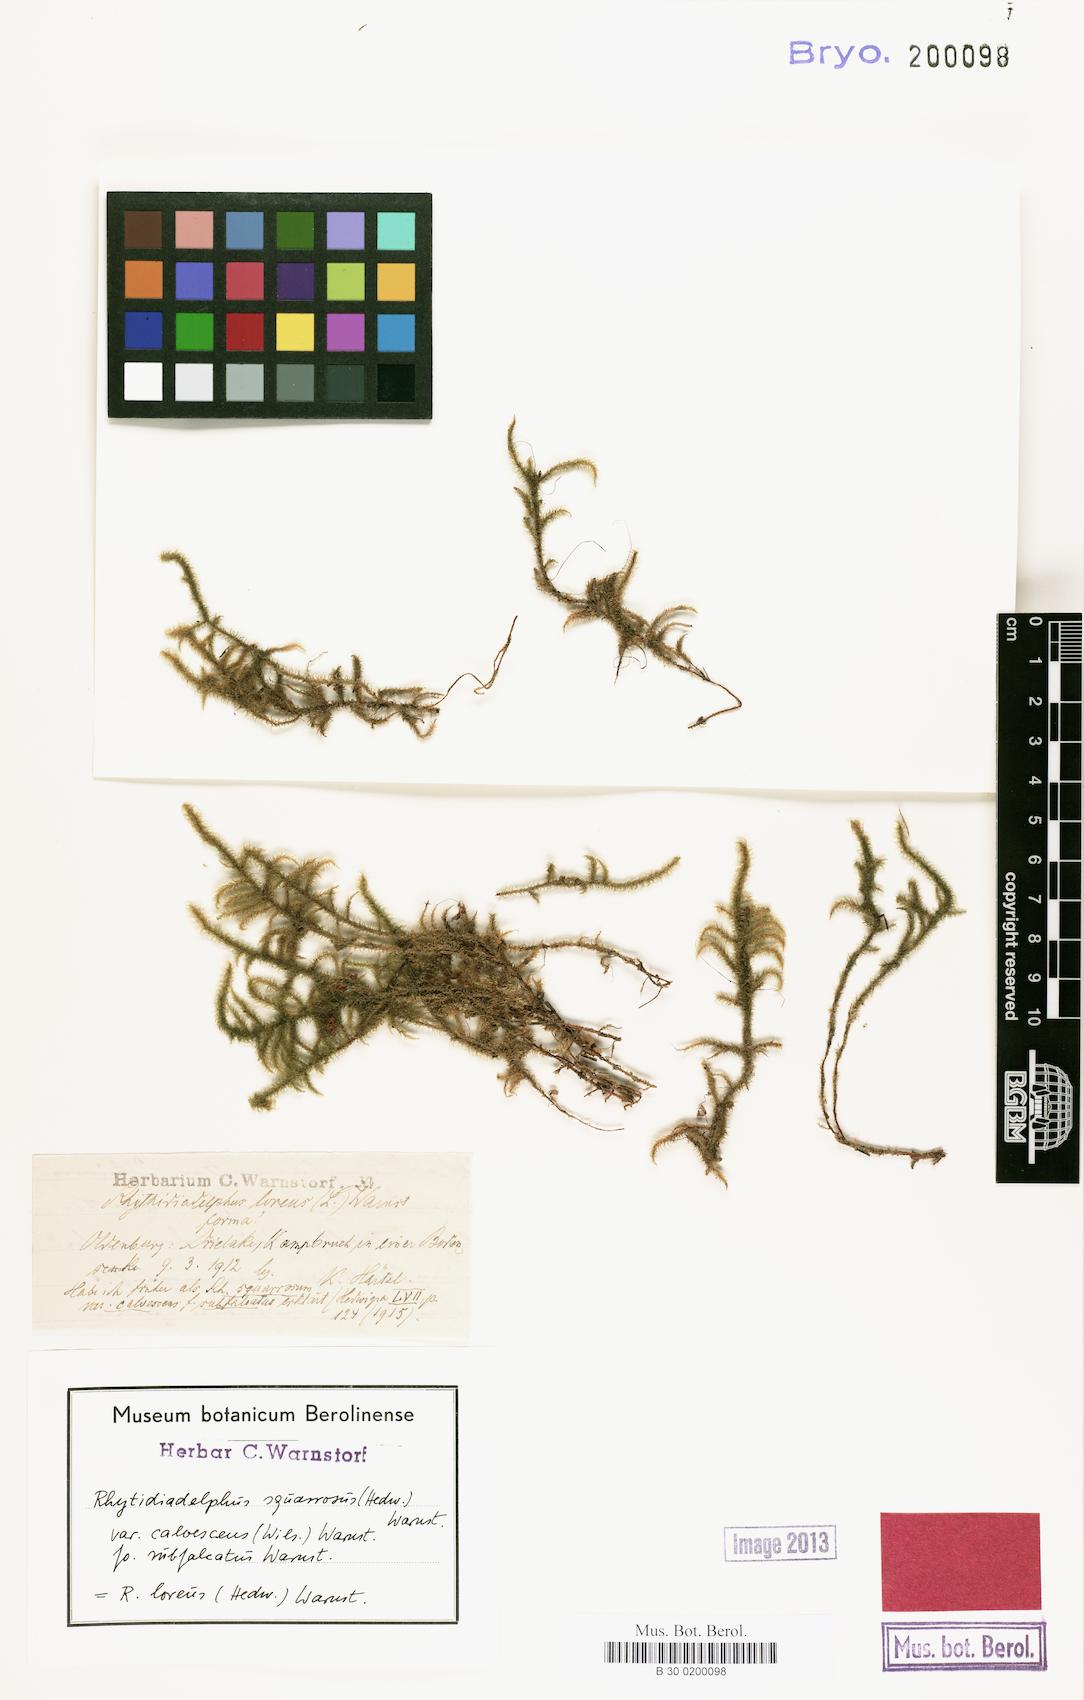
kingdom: Plantae
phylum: Bryophyta
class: Bryopsida
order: Hypnales
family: Hylocomiaceae
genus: Rhytidiadelphus
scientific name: Rhytidiadelphus squarrosus
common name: Springy turf-moss
